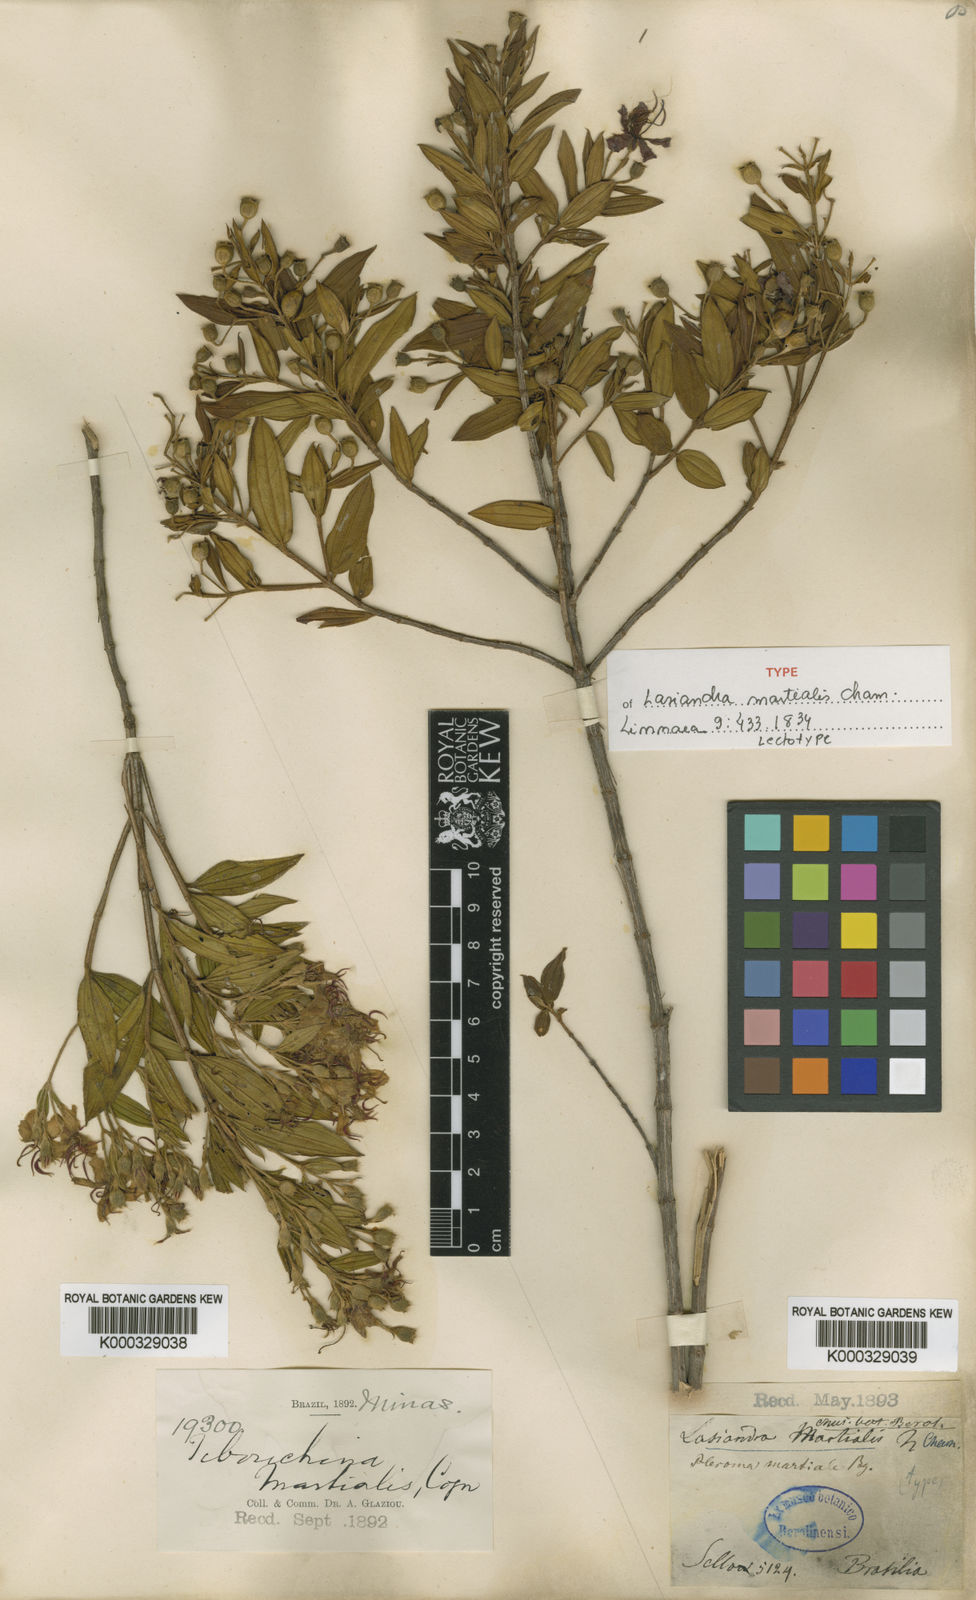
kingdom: Plantae
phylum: Tracheophyta
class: Magnoliopsida
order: Myrtales
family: Melastomataceae
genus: Pleroma
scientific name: Pleroma martiale
